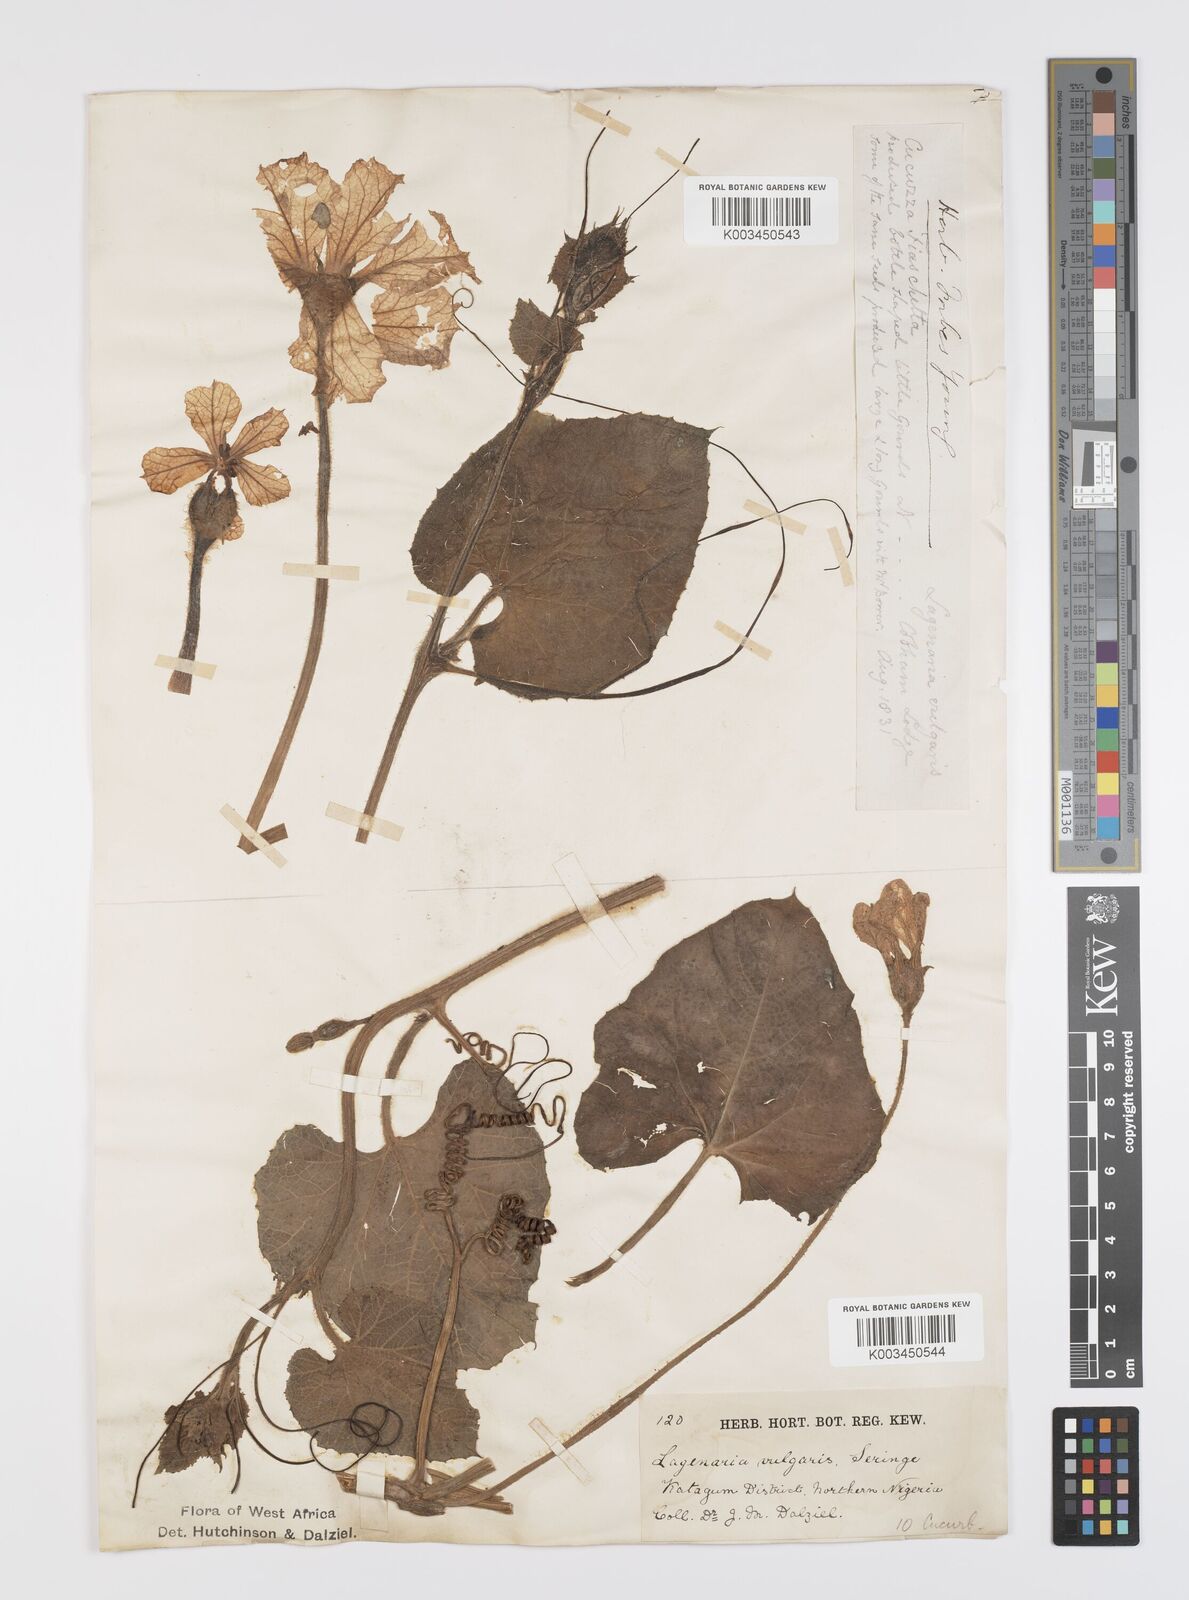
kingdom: Plantae
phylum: Tracheophyta
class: Magnoliopsida
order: Cucurbitales
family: Cucurbitaceae
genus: Lagenaria
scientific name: Lagenaria siceraria
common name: Bottle gourd
